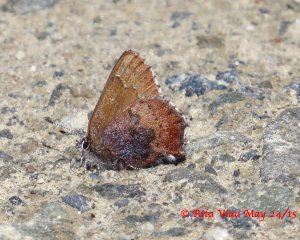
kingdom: Animalia
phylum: Arthropoda
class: Insecta
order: Lepidoptera
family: Lycaenidae
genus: Incisalia
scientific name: Incisalia irioides
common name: Brown Elfin
